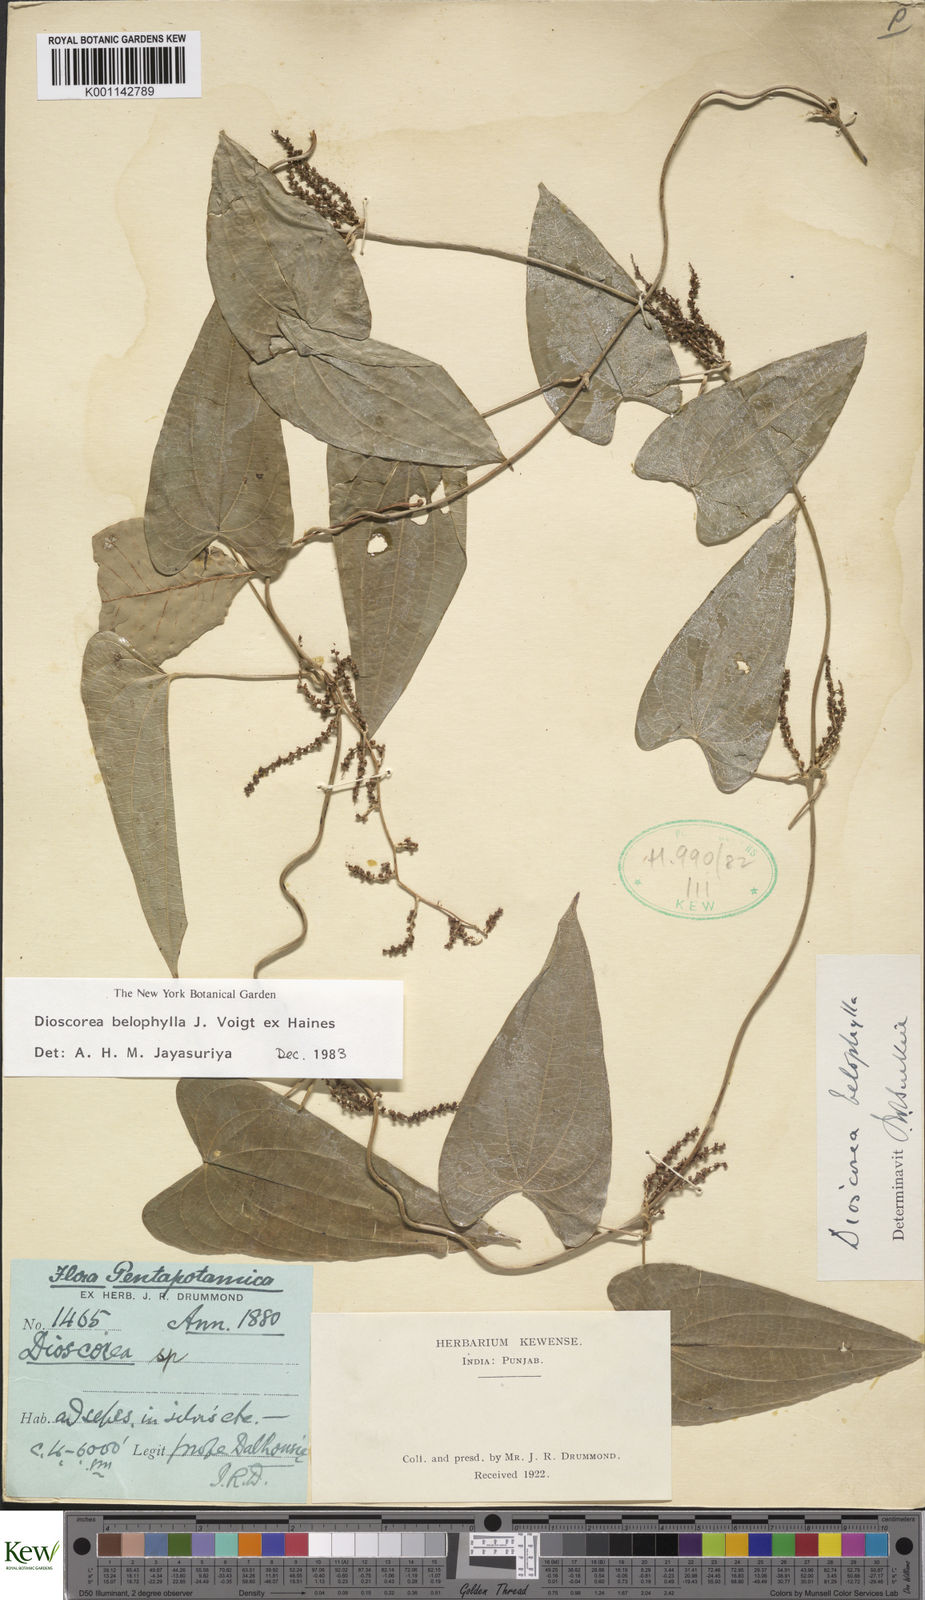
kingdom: Plantae
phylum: Tracheophyta
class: Liliopsida
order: Dioscoreales
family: Dioscoreaceae
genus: Dioscorea
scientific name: Dioscorea belophylla
